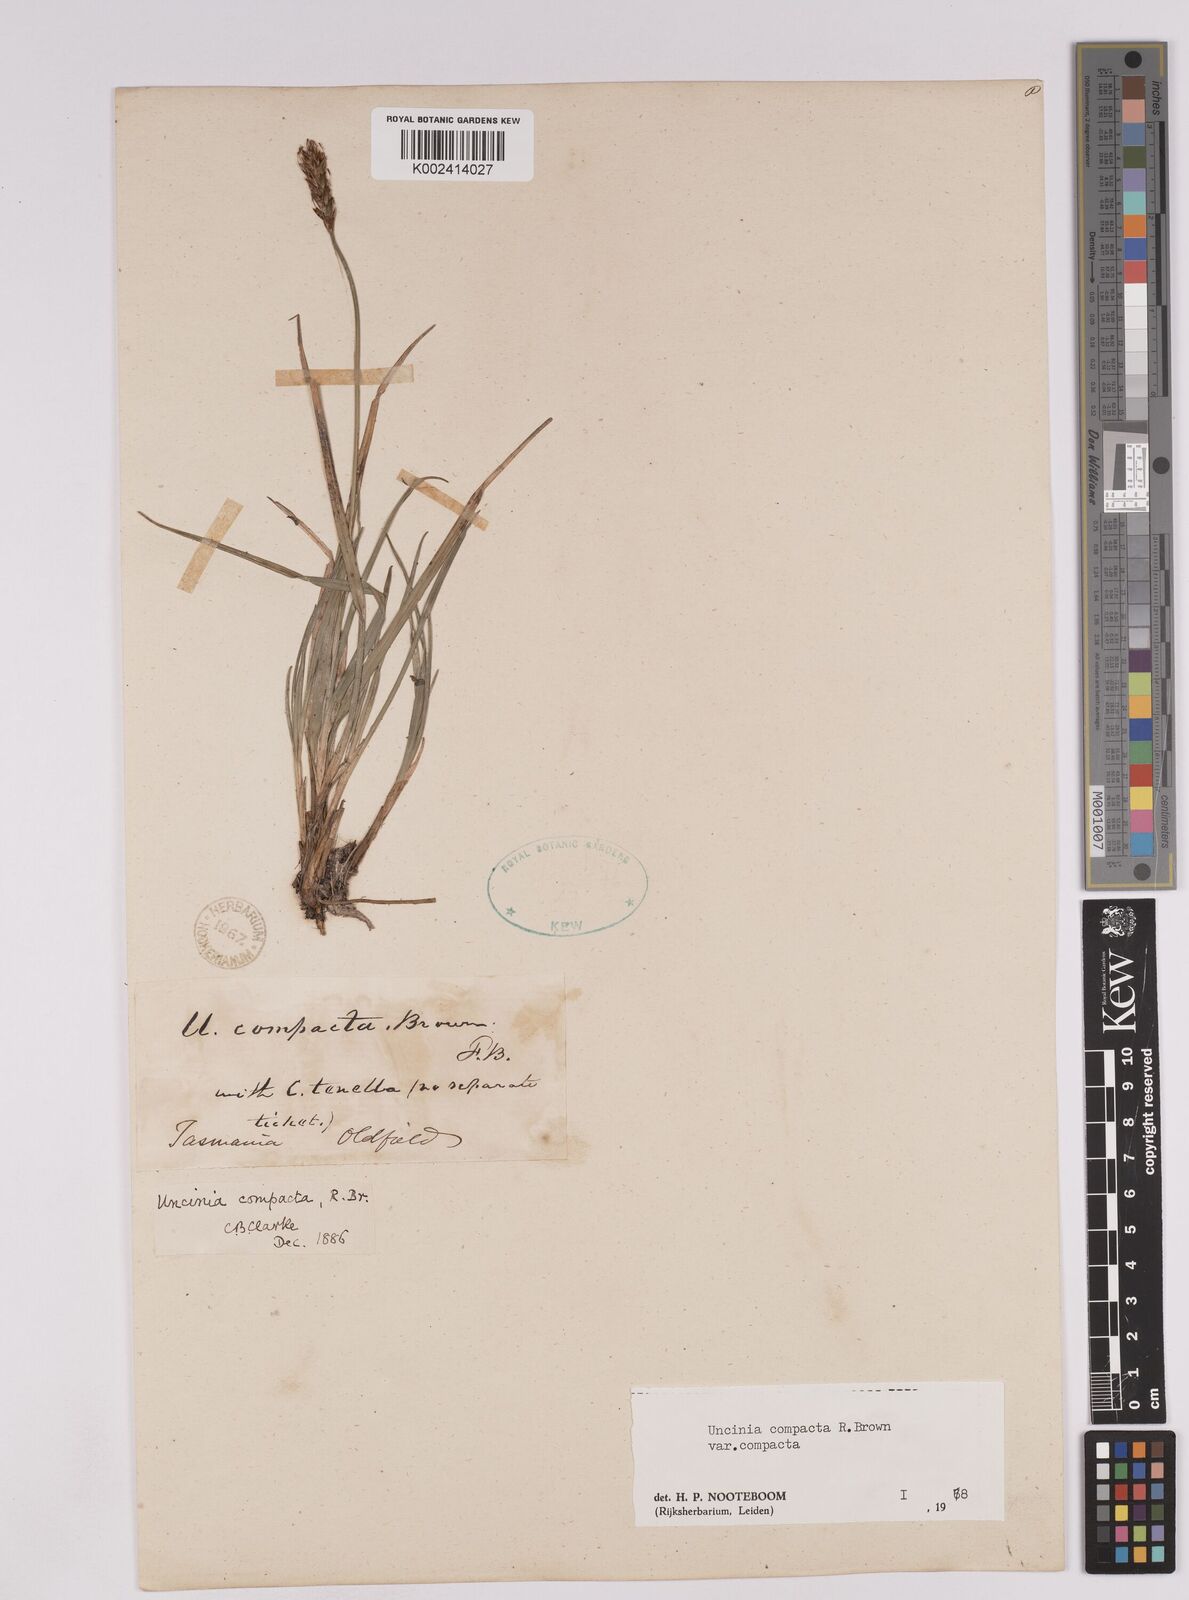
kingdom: Plantae
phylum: Tracheophyta
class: Liliopsida
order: Poales
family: Cyperaceae
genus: Carex
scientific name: Carex austrocompacta
